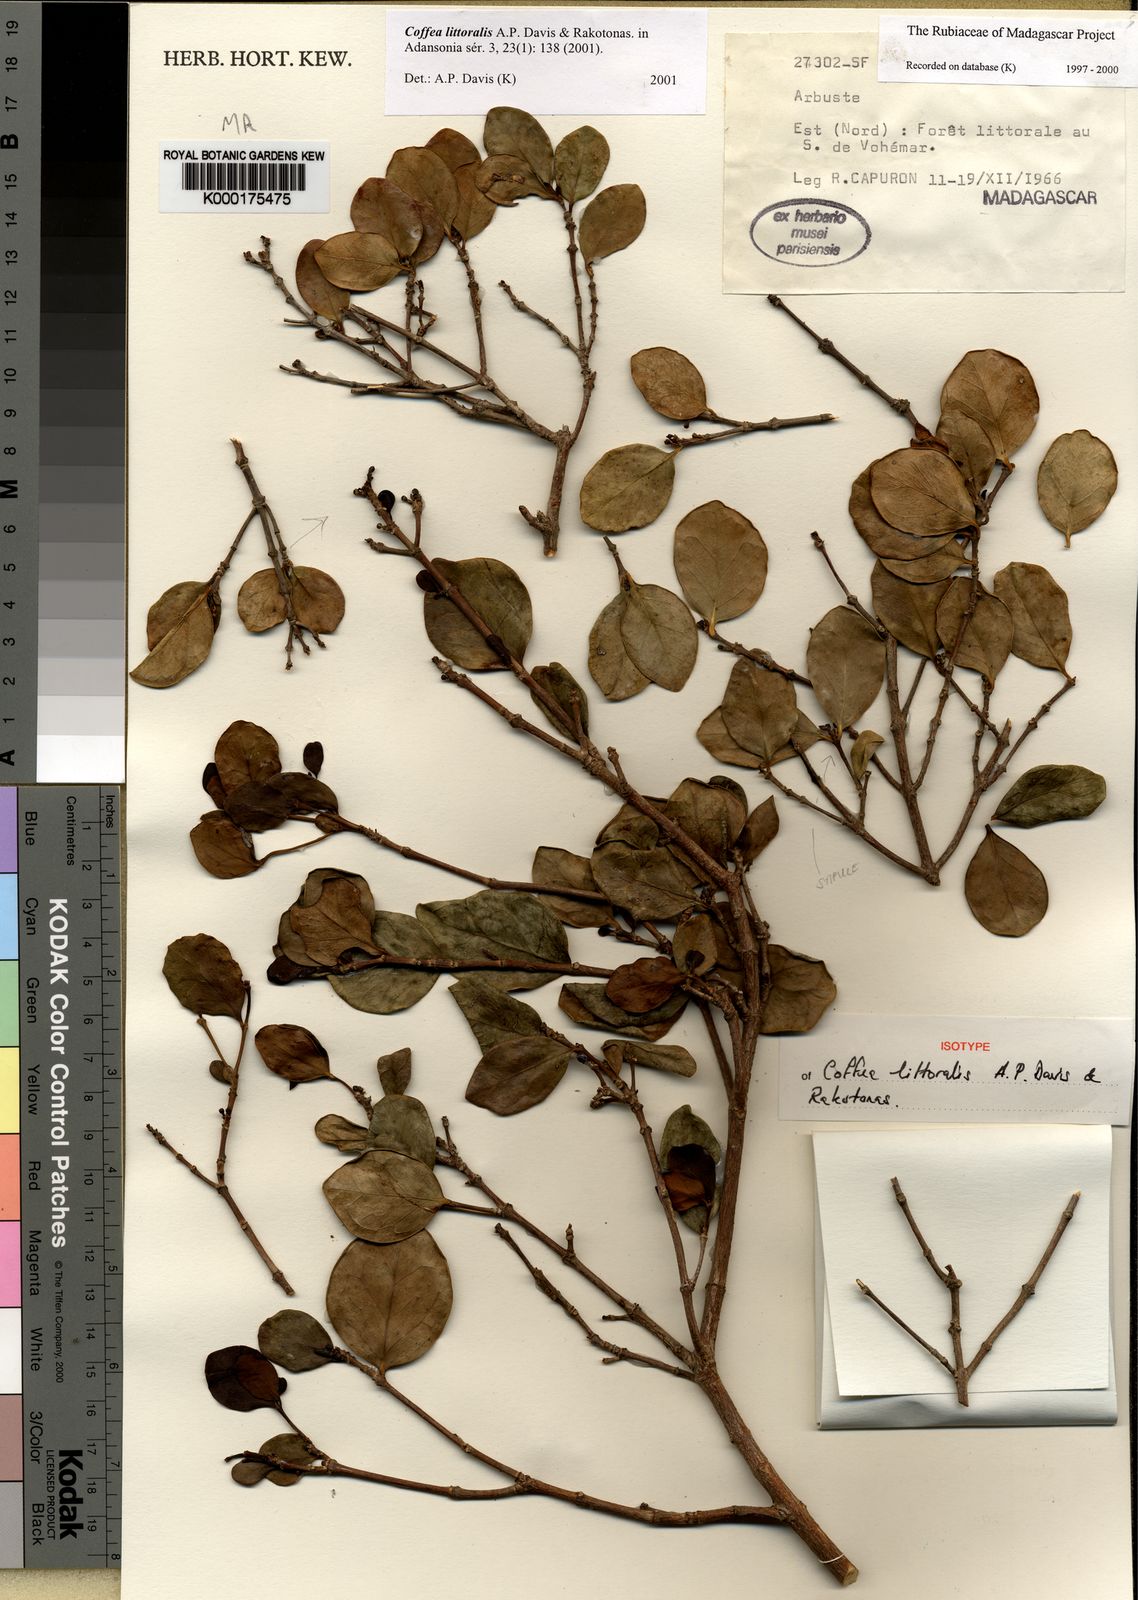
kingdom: Plantae
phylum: Tracheophyta
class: Magnoliopsida
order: Gentianales
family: Rubiaceae
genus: Coffea
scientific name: Coffea littoralis
